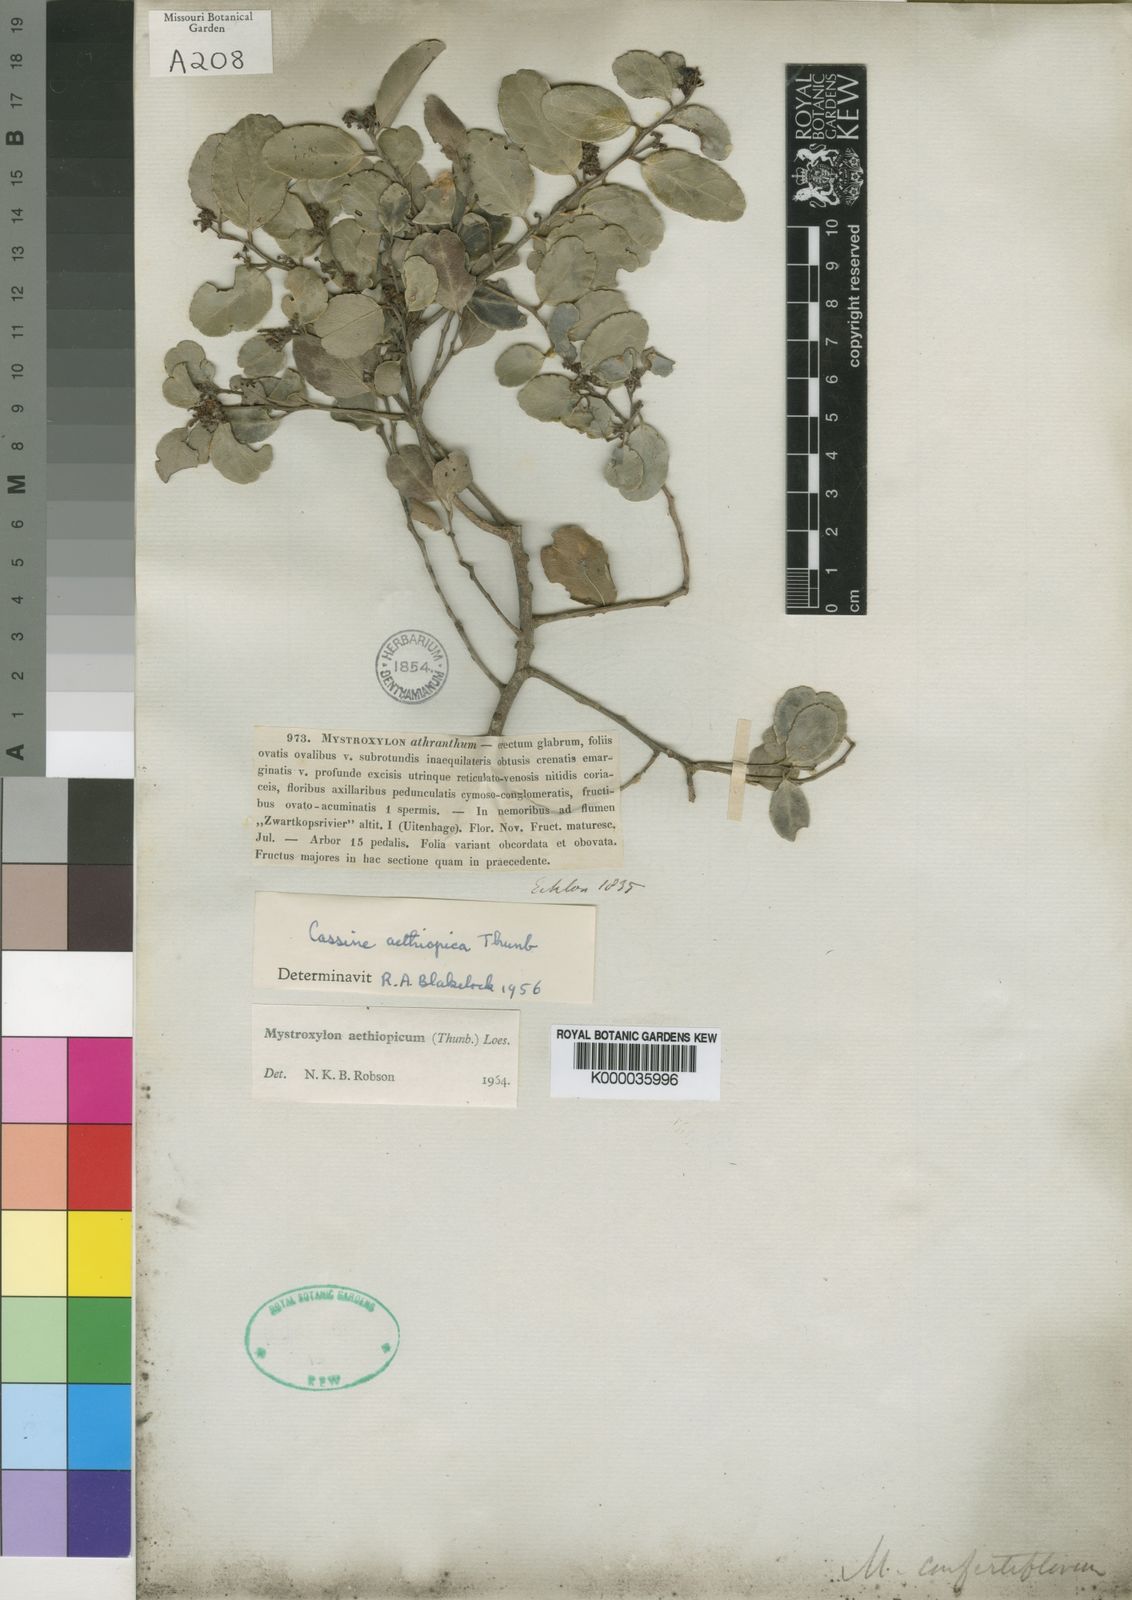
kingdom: Plantae
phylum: Tracheophyta
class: Magnoliopsida
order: Celastrales
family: Celastraceae
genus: Mystroxylon
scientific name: Mystroxylon aethiopicum
